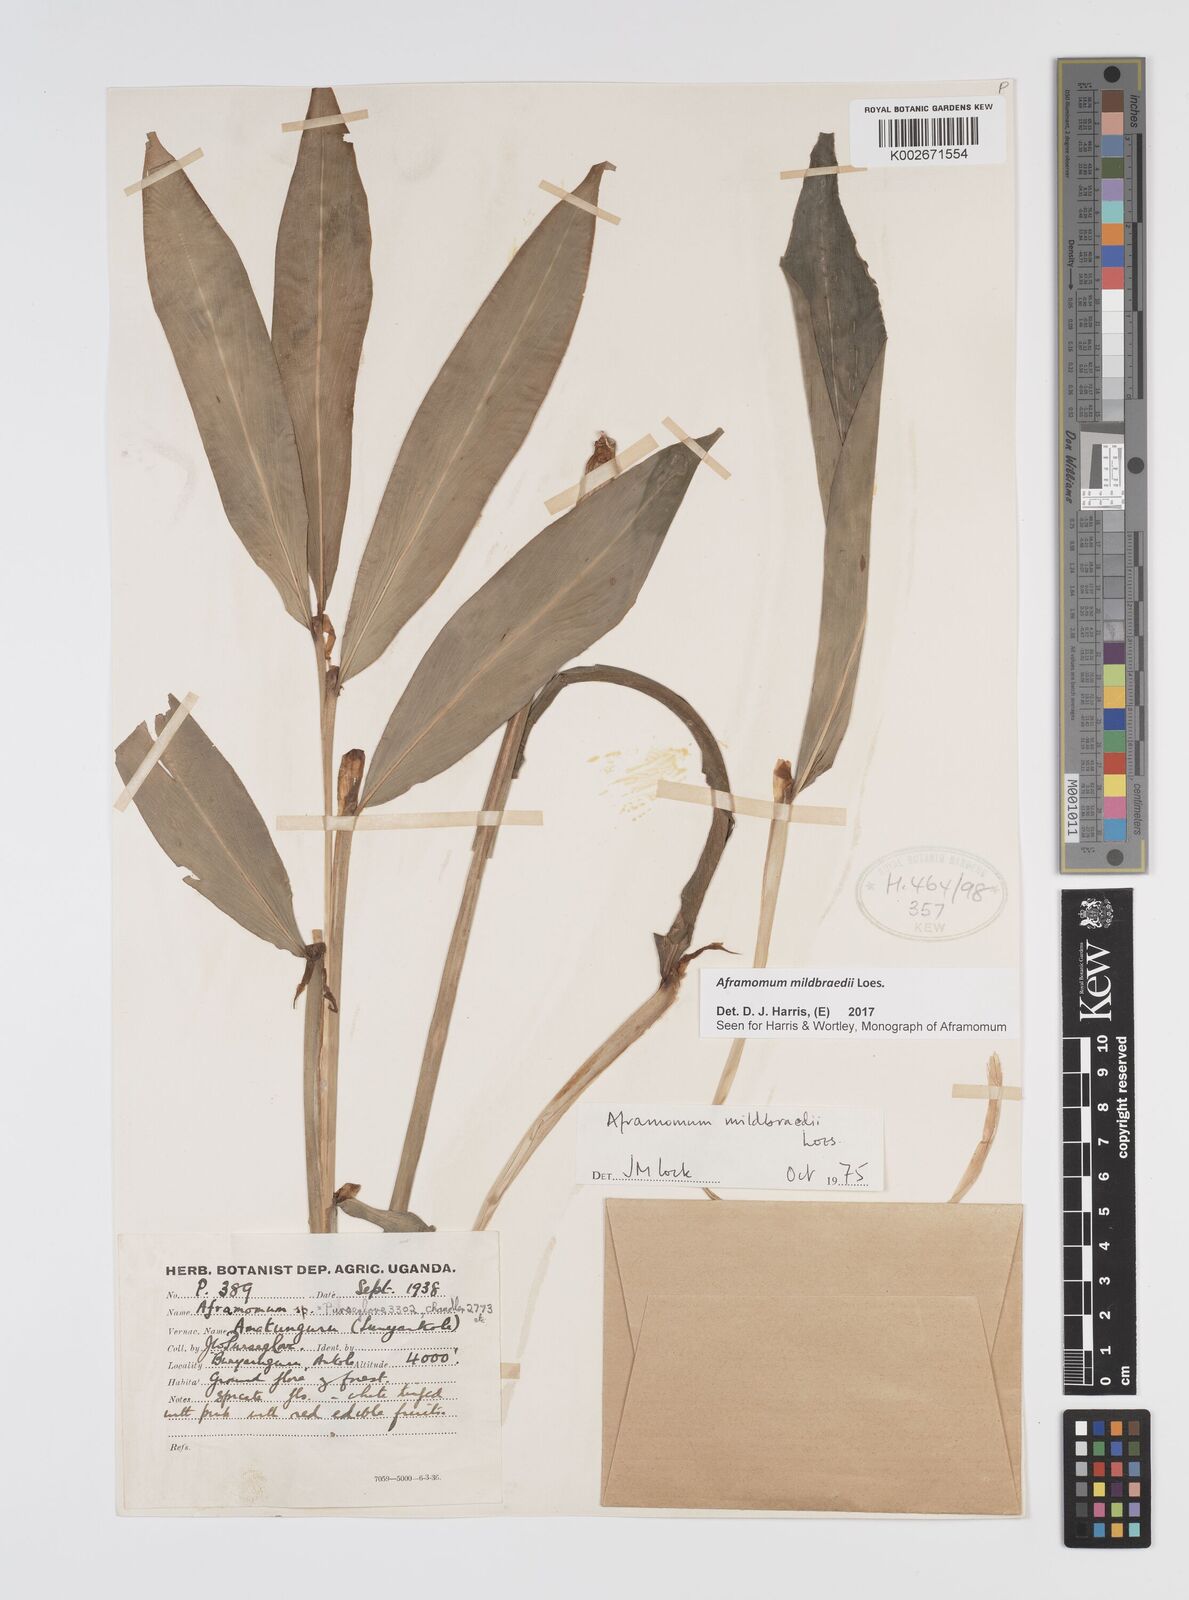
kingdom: Plantae
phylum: Tracheophyta
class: Liliopsida
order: Zingiberales
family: Zingiberaceae
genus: Aframomum
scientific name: Aframomum mildbraedii
